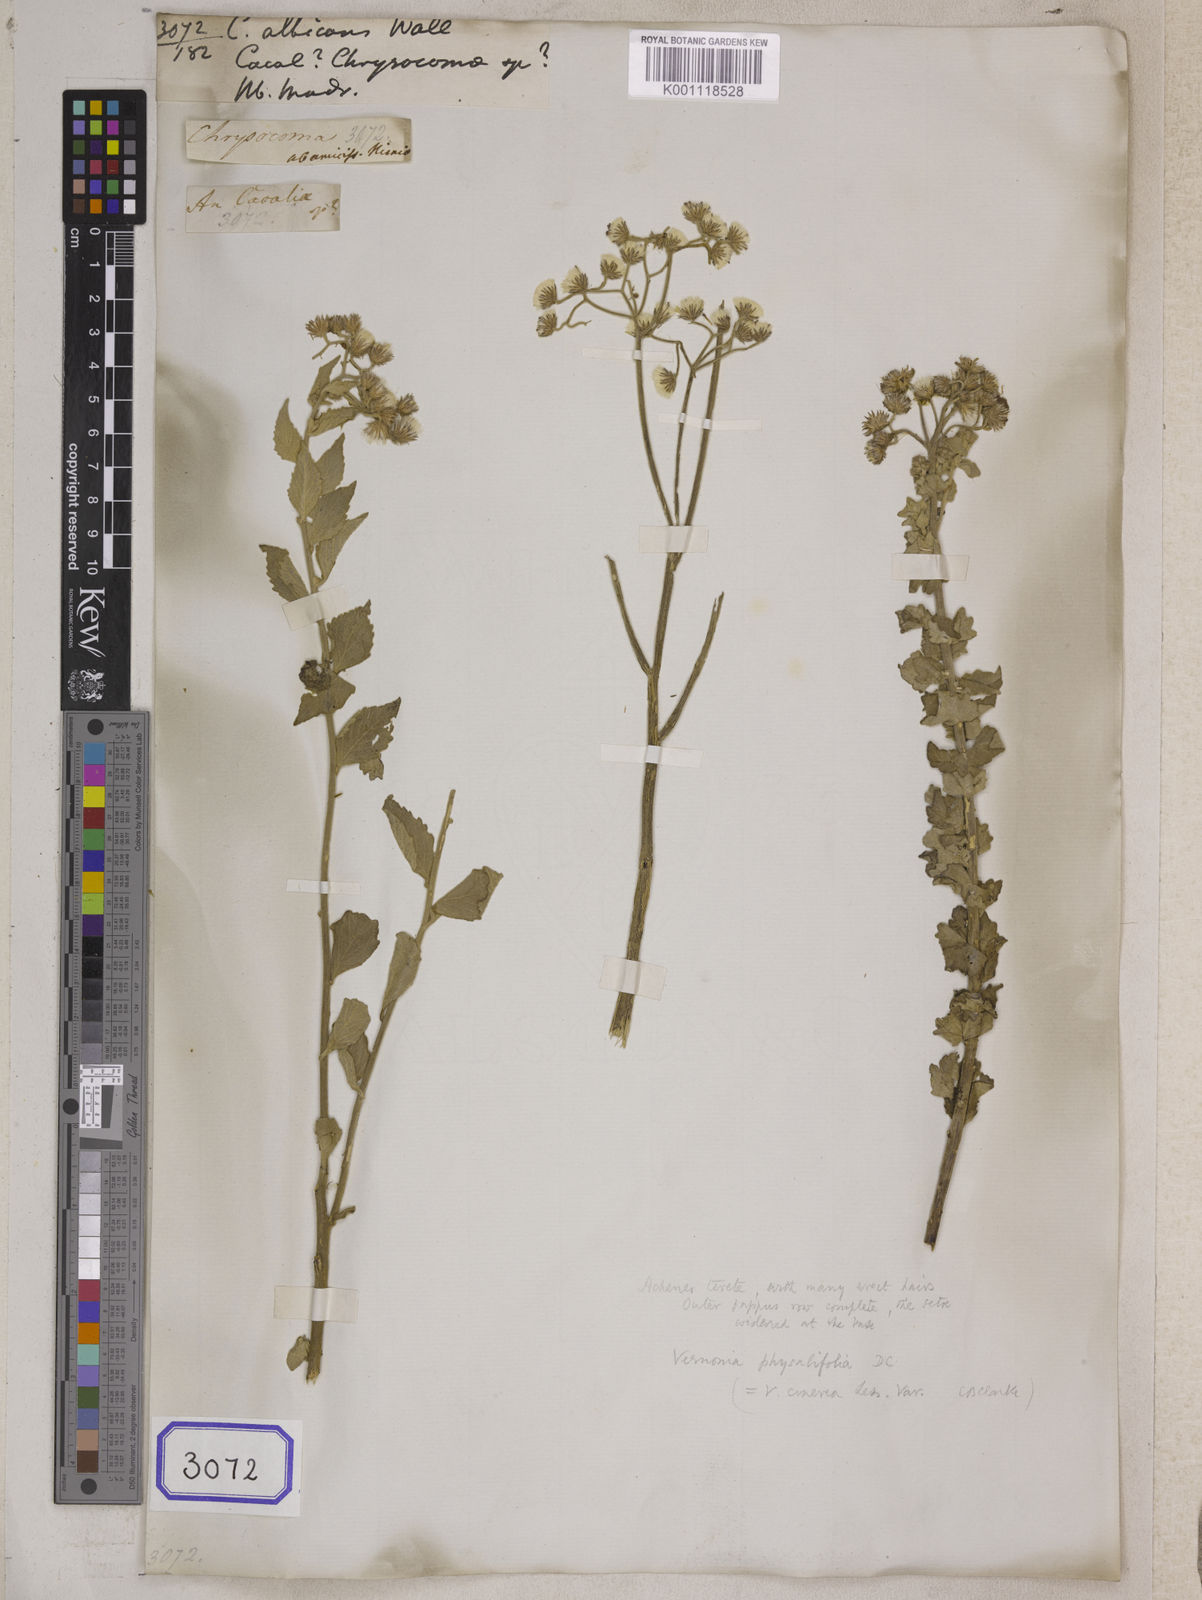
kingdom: Plantae
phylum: Tracheophyta
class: Magnoliopsida
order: Asterales
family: Asteraceae
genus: Cyanthillium
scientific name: Cyanthillium albicans
